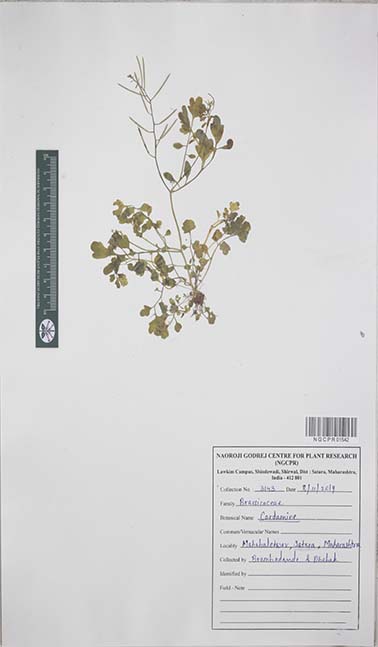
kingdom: Plantae
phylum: Tracheophyta
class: Magnoliopsida
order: Brassicales
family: Brassicaceae
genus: Cardamine
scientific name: Cardamine
